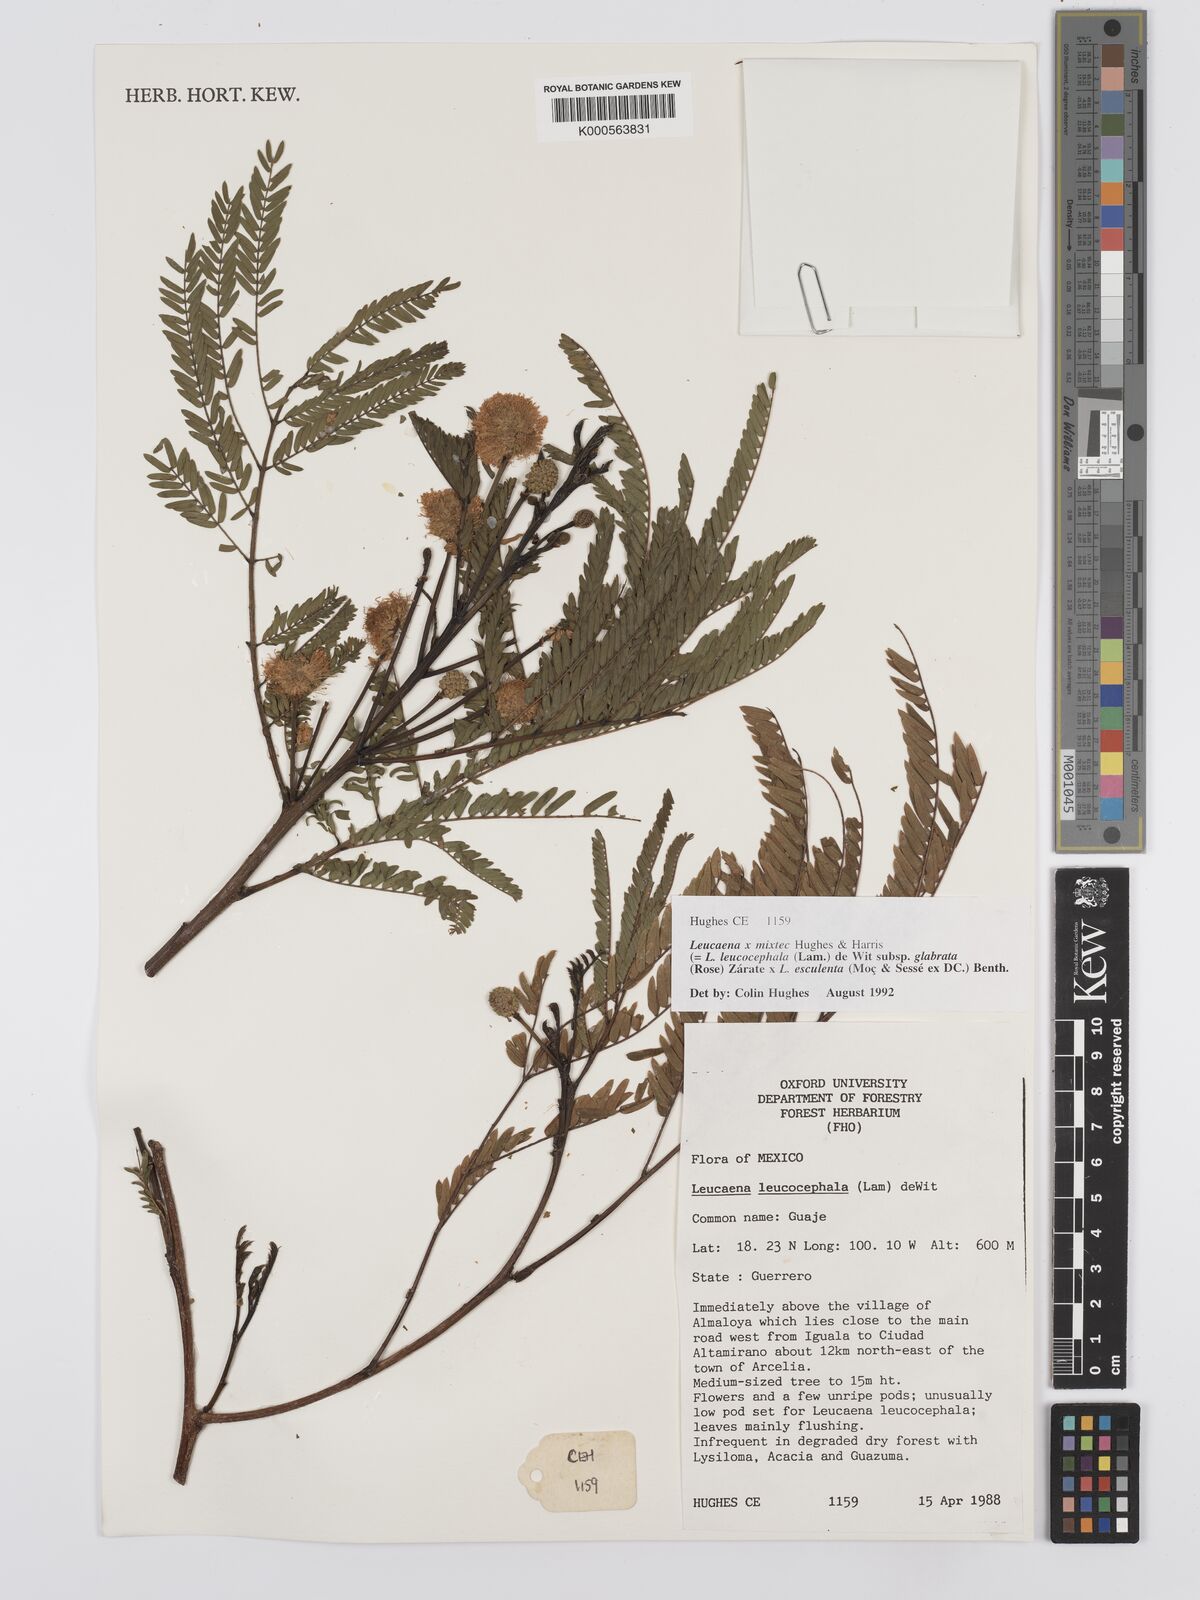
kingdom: Plantae
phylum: Tracheophyta
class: Magnoliopsida
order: Fabales
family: Fabaceae
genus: Leucaena
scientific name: Leucaena mixtec
